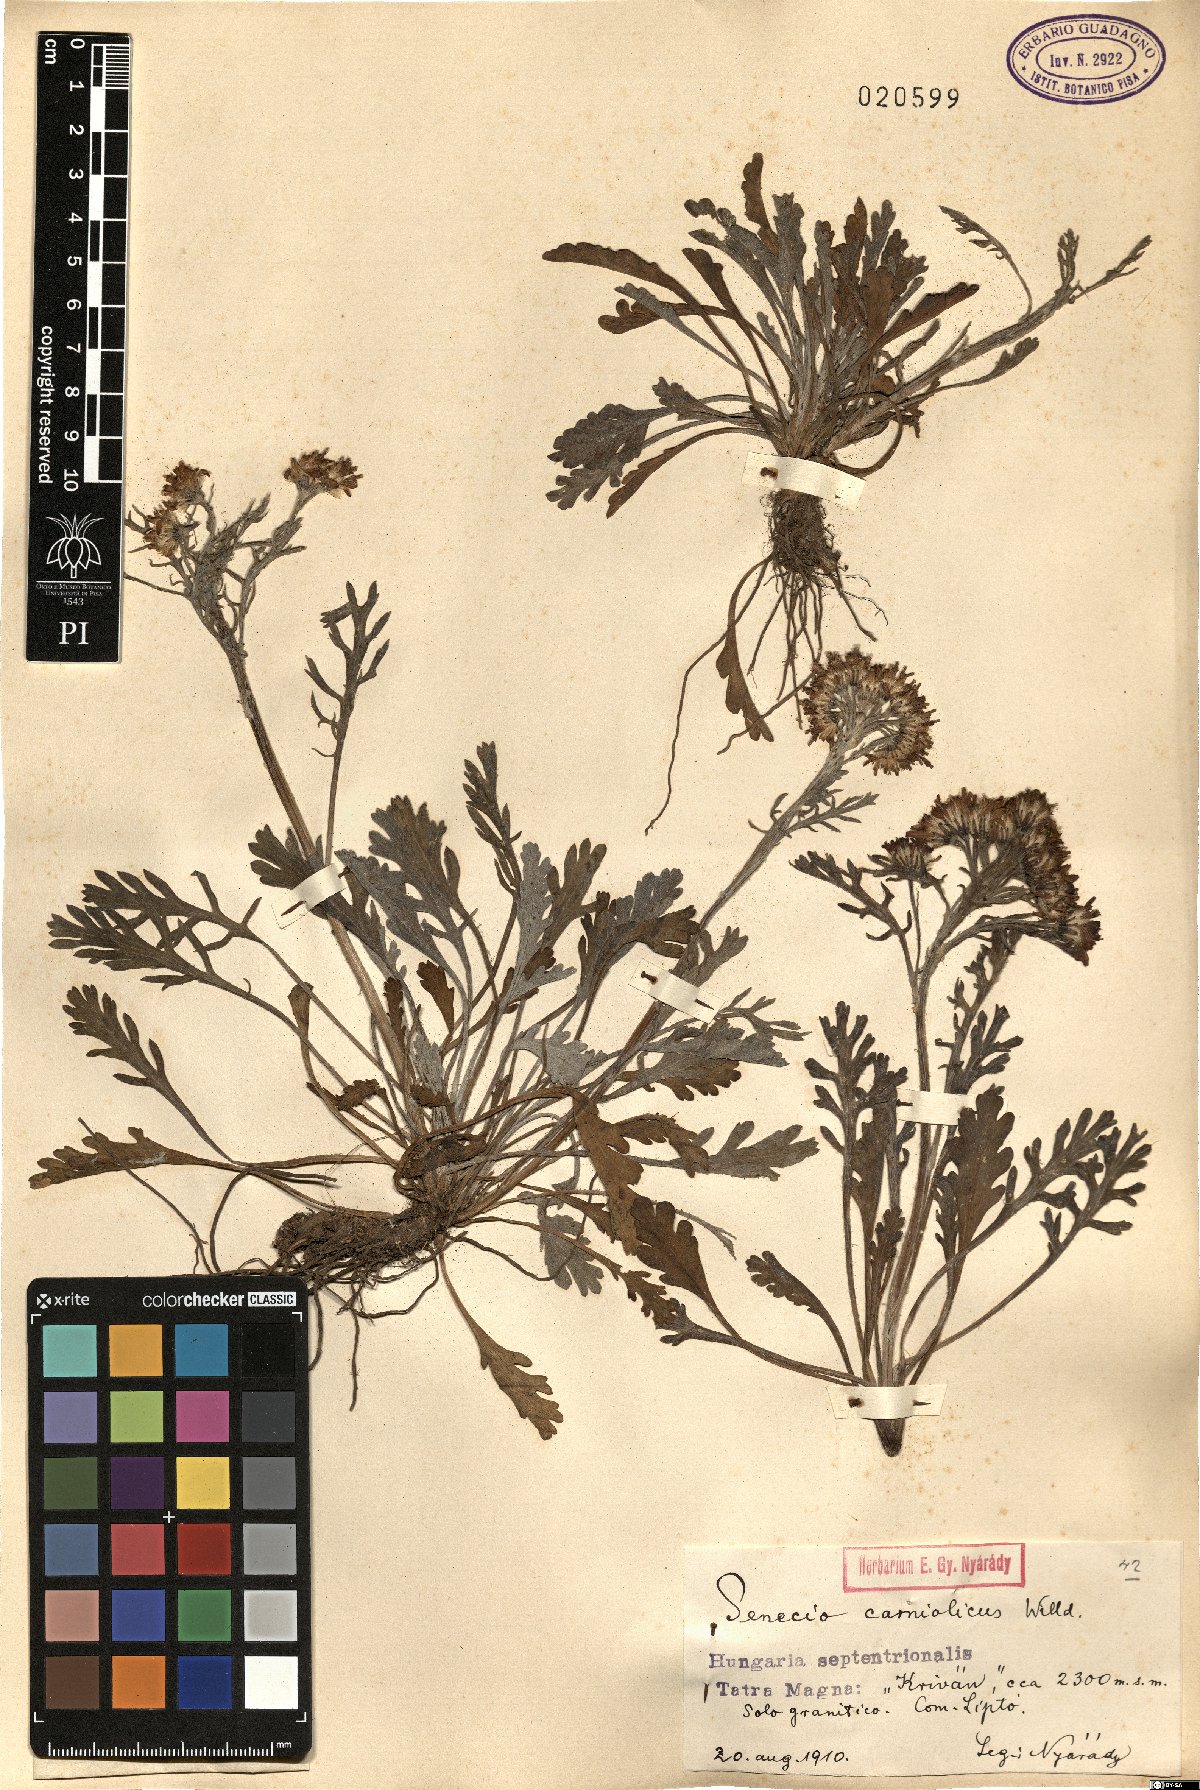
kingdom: Plantae
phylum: Tracheophyta
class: Magnoliopsida
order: Asterales
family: Asteraceae
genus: Jacobaea
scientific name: Jacobaea carniolica
